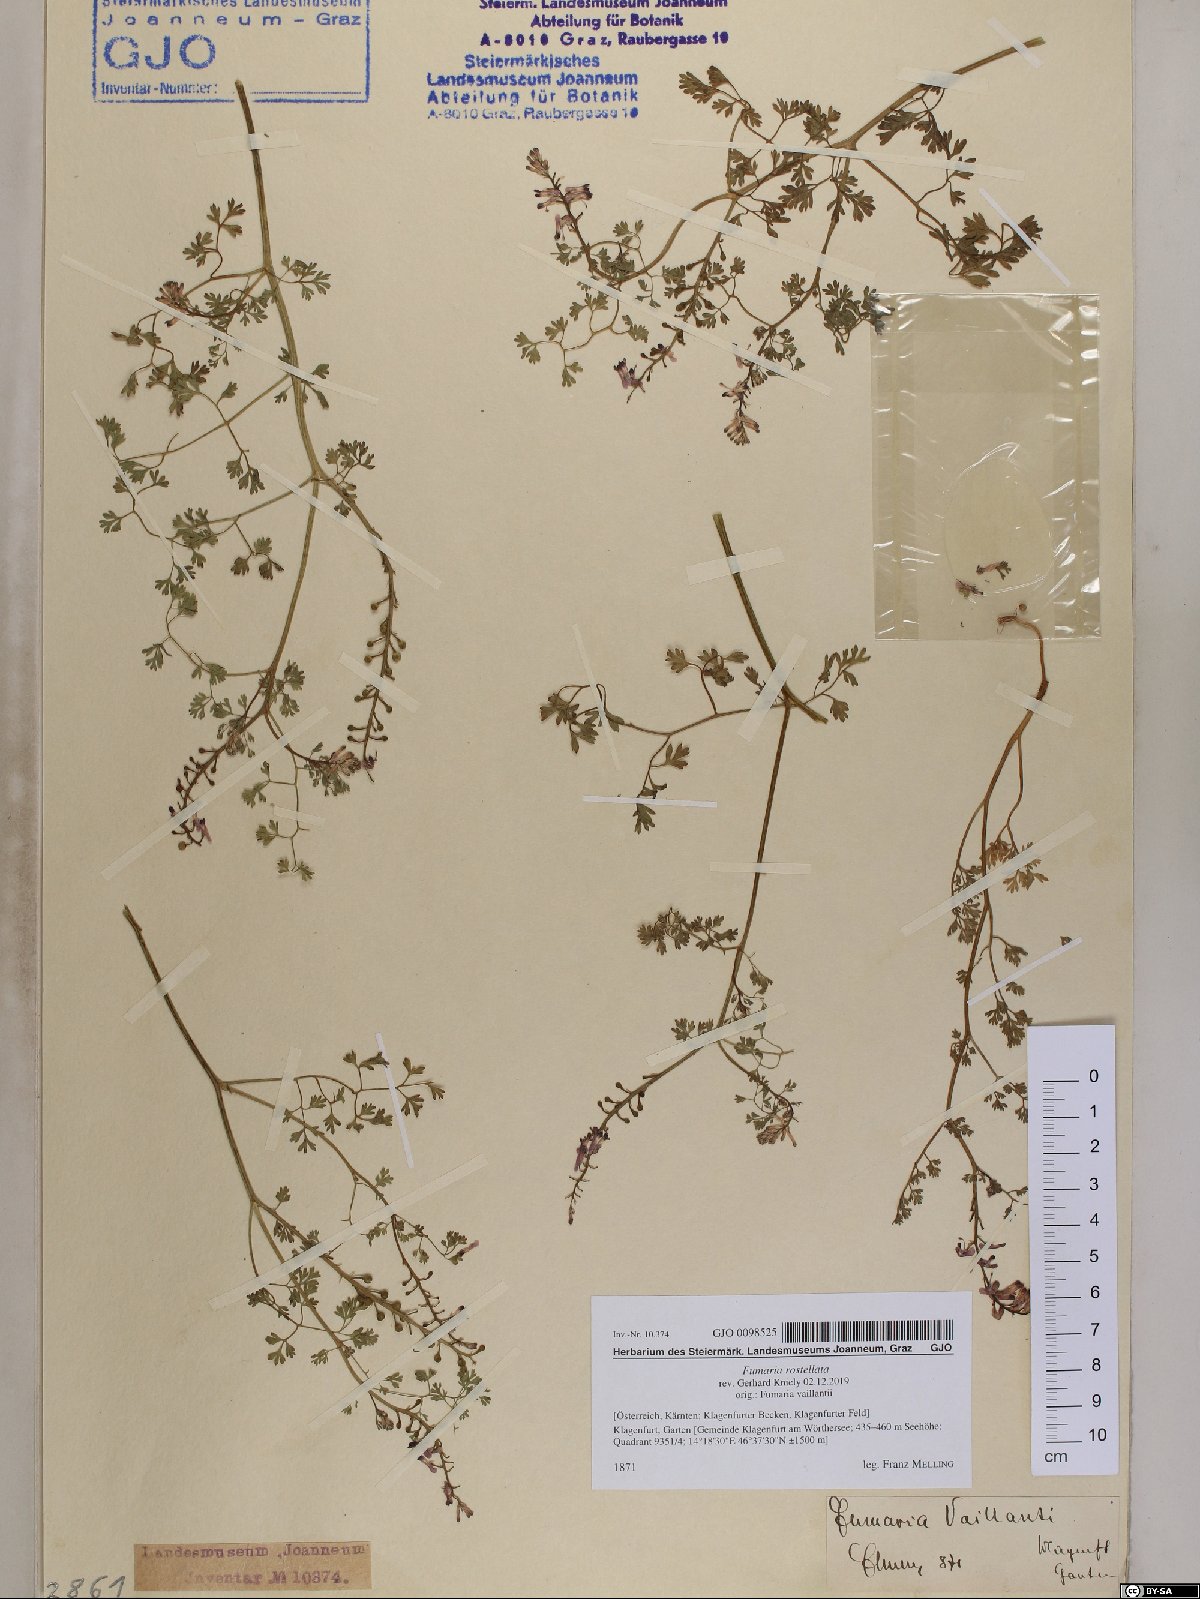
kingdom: Plantae
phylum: Tracheophyta
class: Magnoliopsida
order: Ranunculales
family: Papaveraceae
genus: Fumaria
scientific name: Fumaria rostellata
